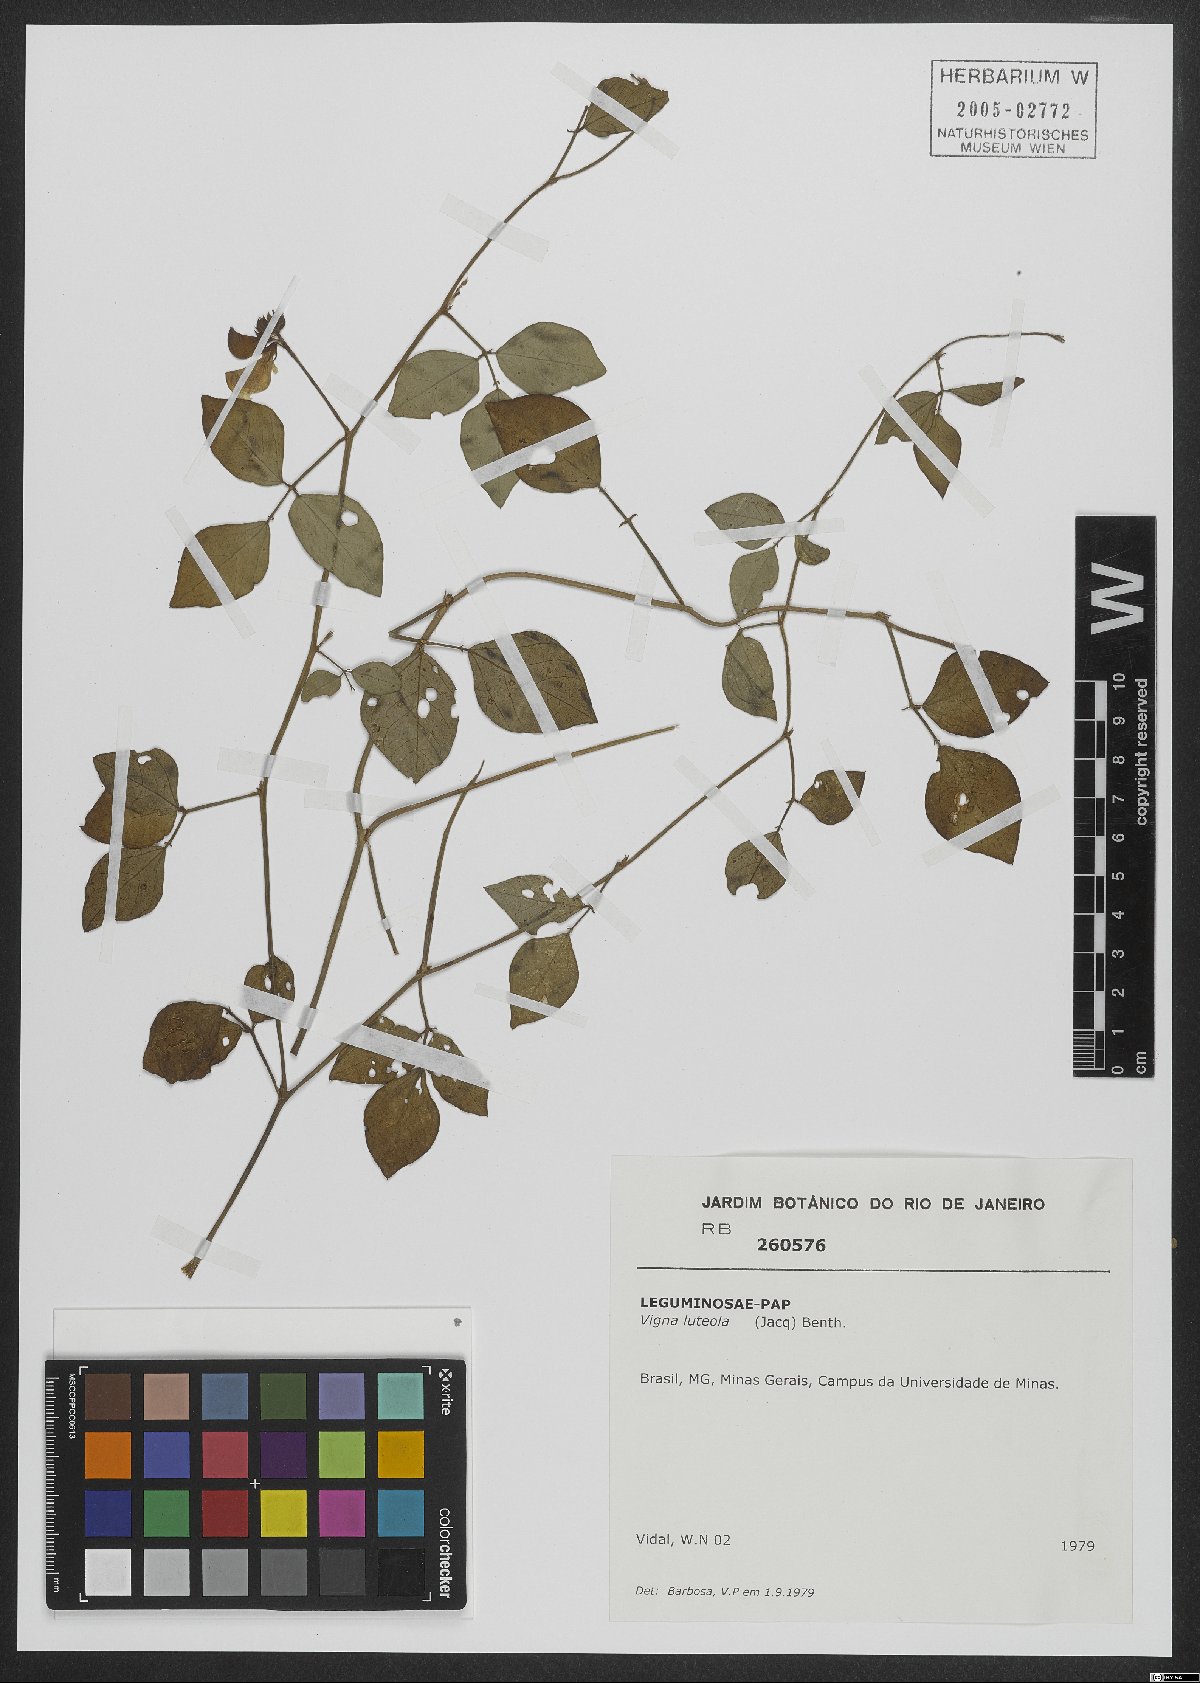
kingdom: Plantae
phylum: Tracheophyta
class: Magnoliopsida
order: Fabales
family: Fabaceae
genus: Vigna
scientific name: Vigna luteola
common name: Hairypod cowpea
